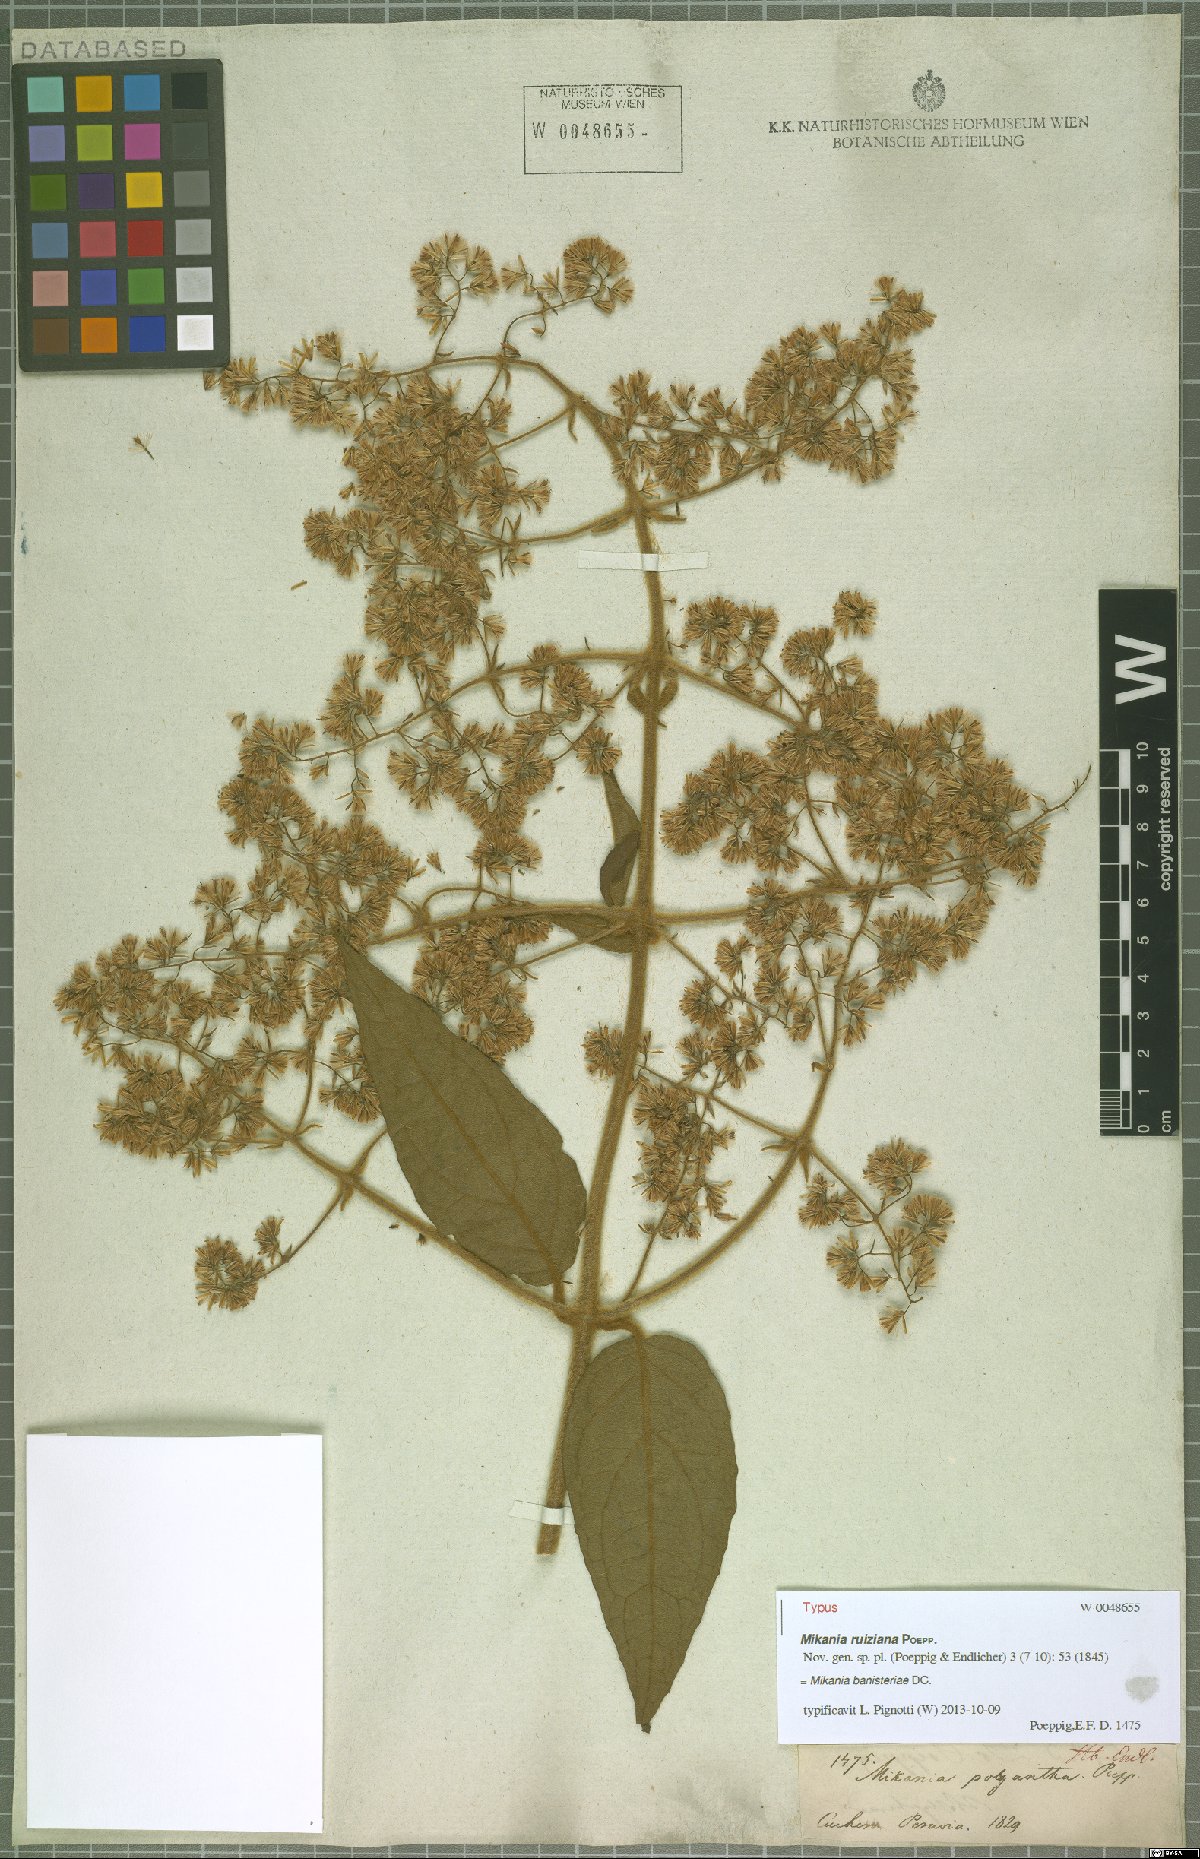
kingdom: Plantae
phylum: Tracheophyta
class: Magnoliopsida
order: Asterales
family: Asteraceae
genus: Mikania
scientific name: Mikania banisteriae
